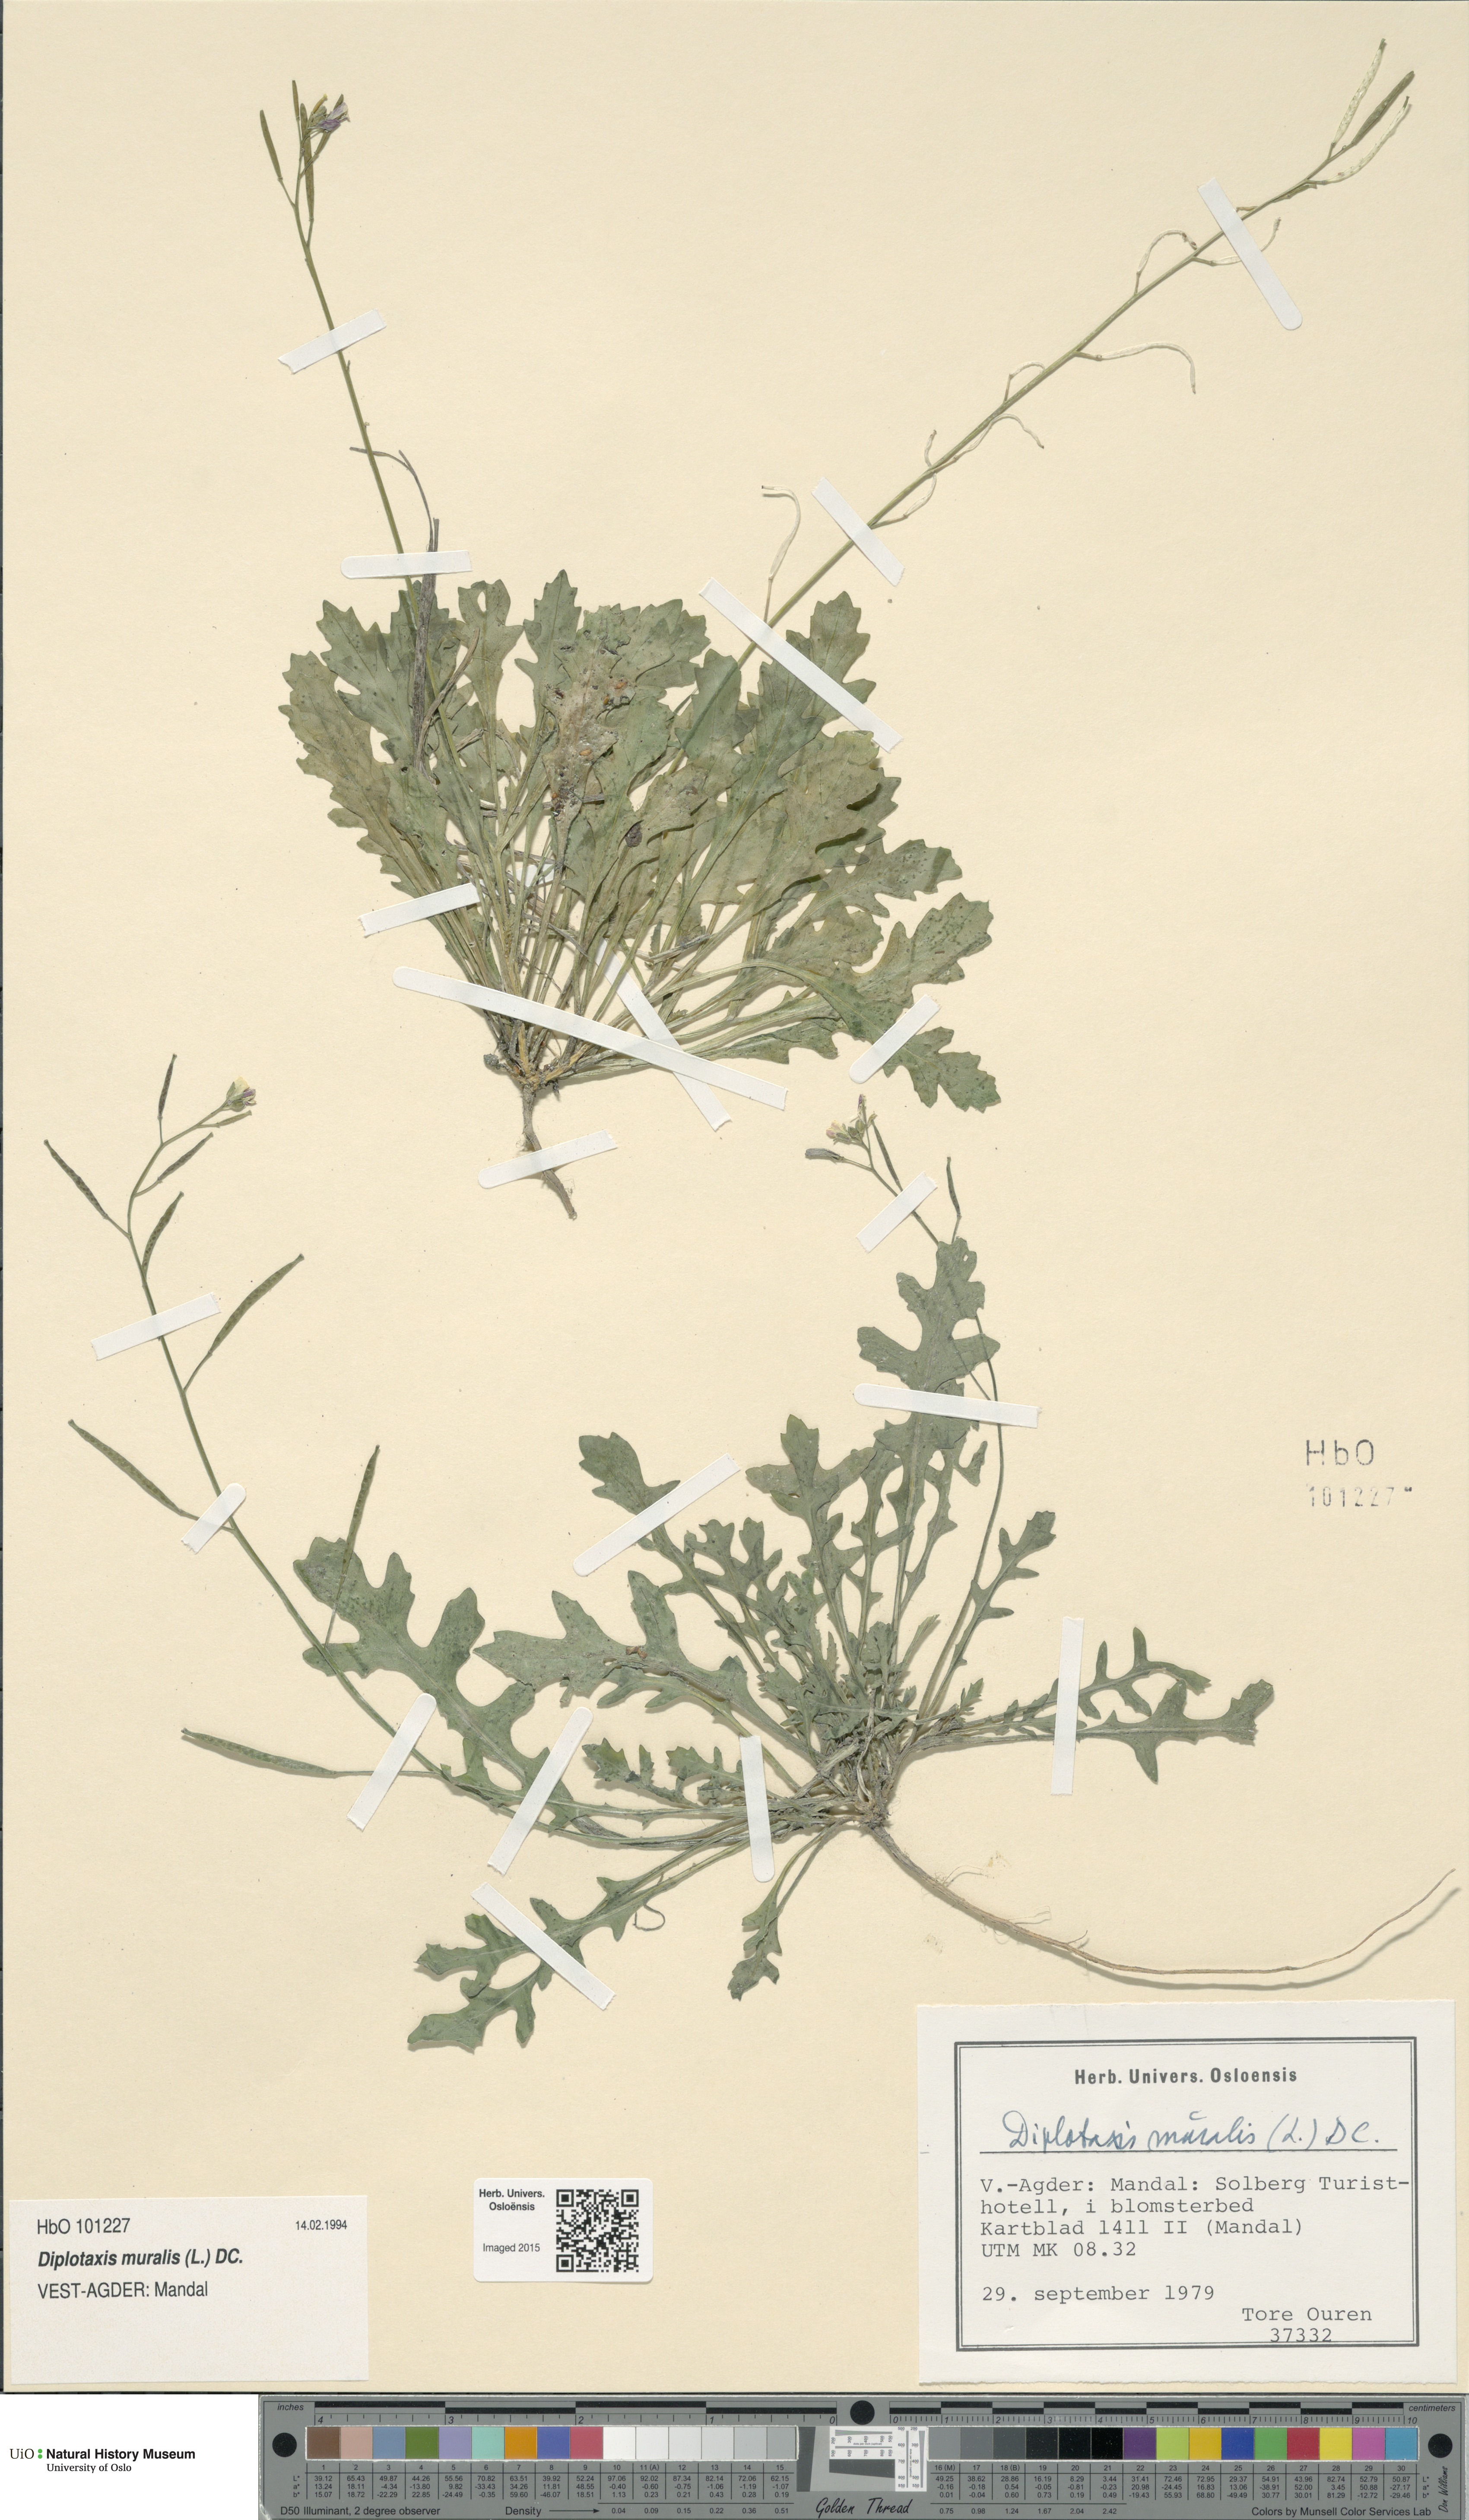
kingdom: Plantae
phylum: Tracheophyta
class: Magnoliopsida
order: Brassicales
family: Brassicaceae
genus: Diplotaxis
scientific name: Diplotaxis muralis
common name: Annual wall-rocket
